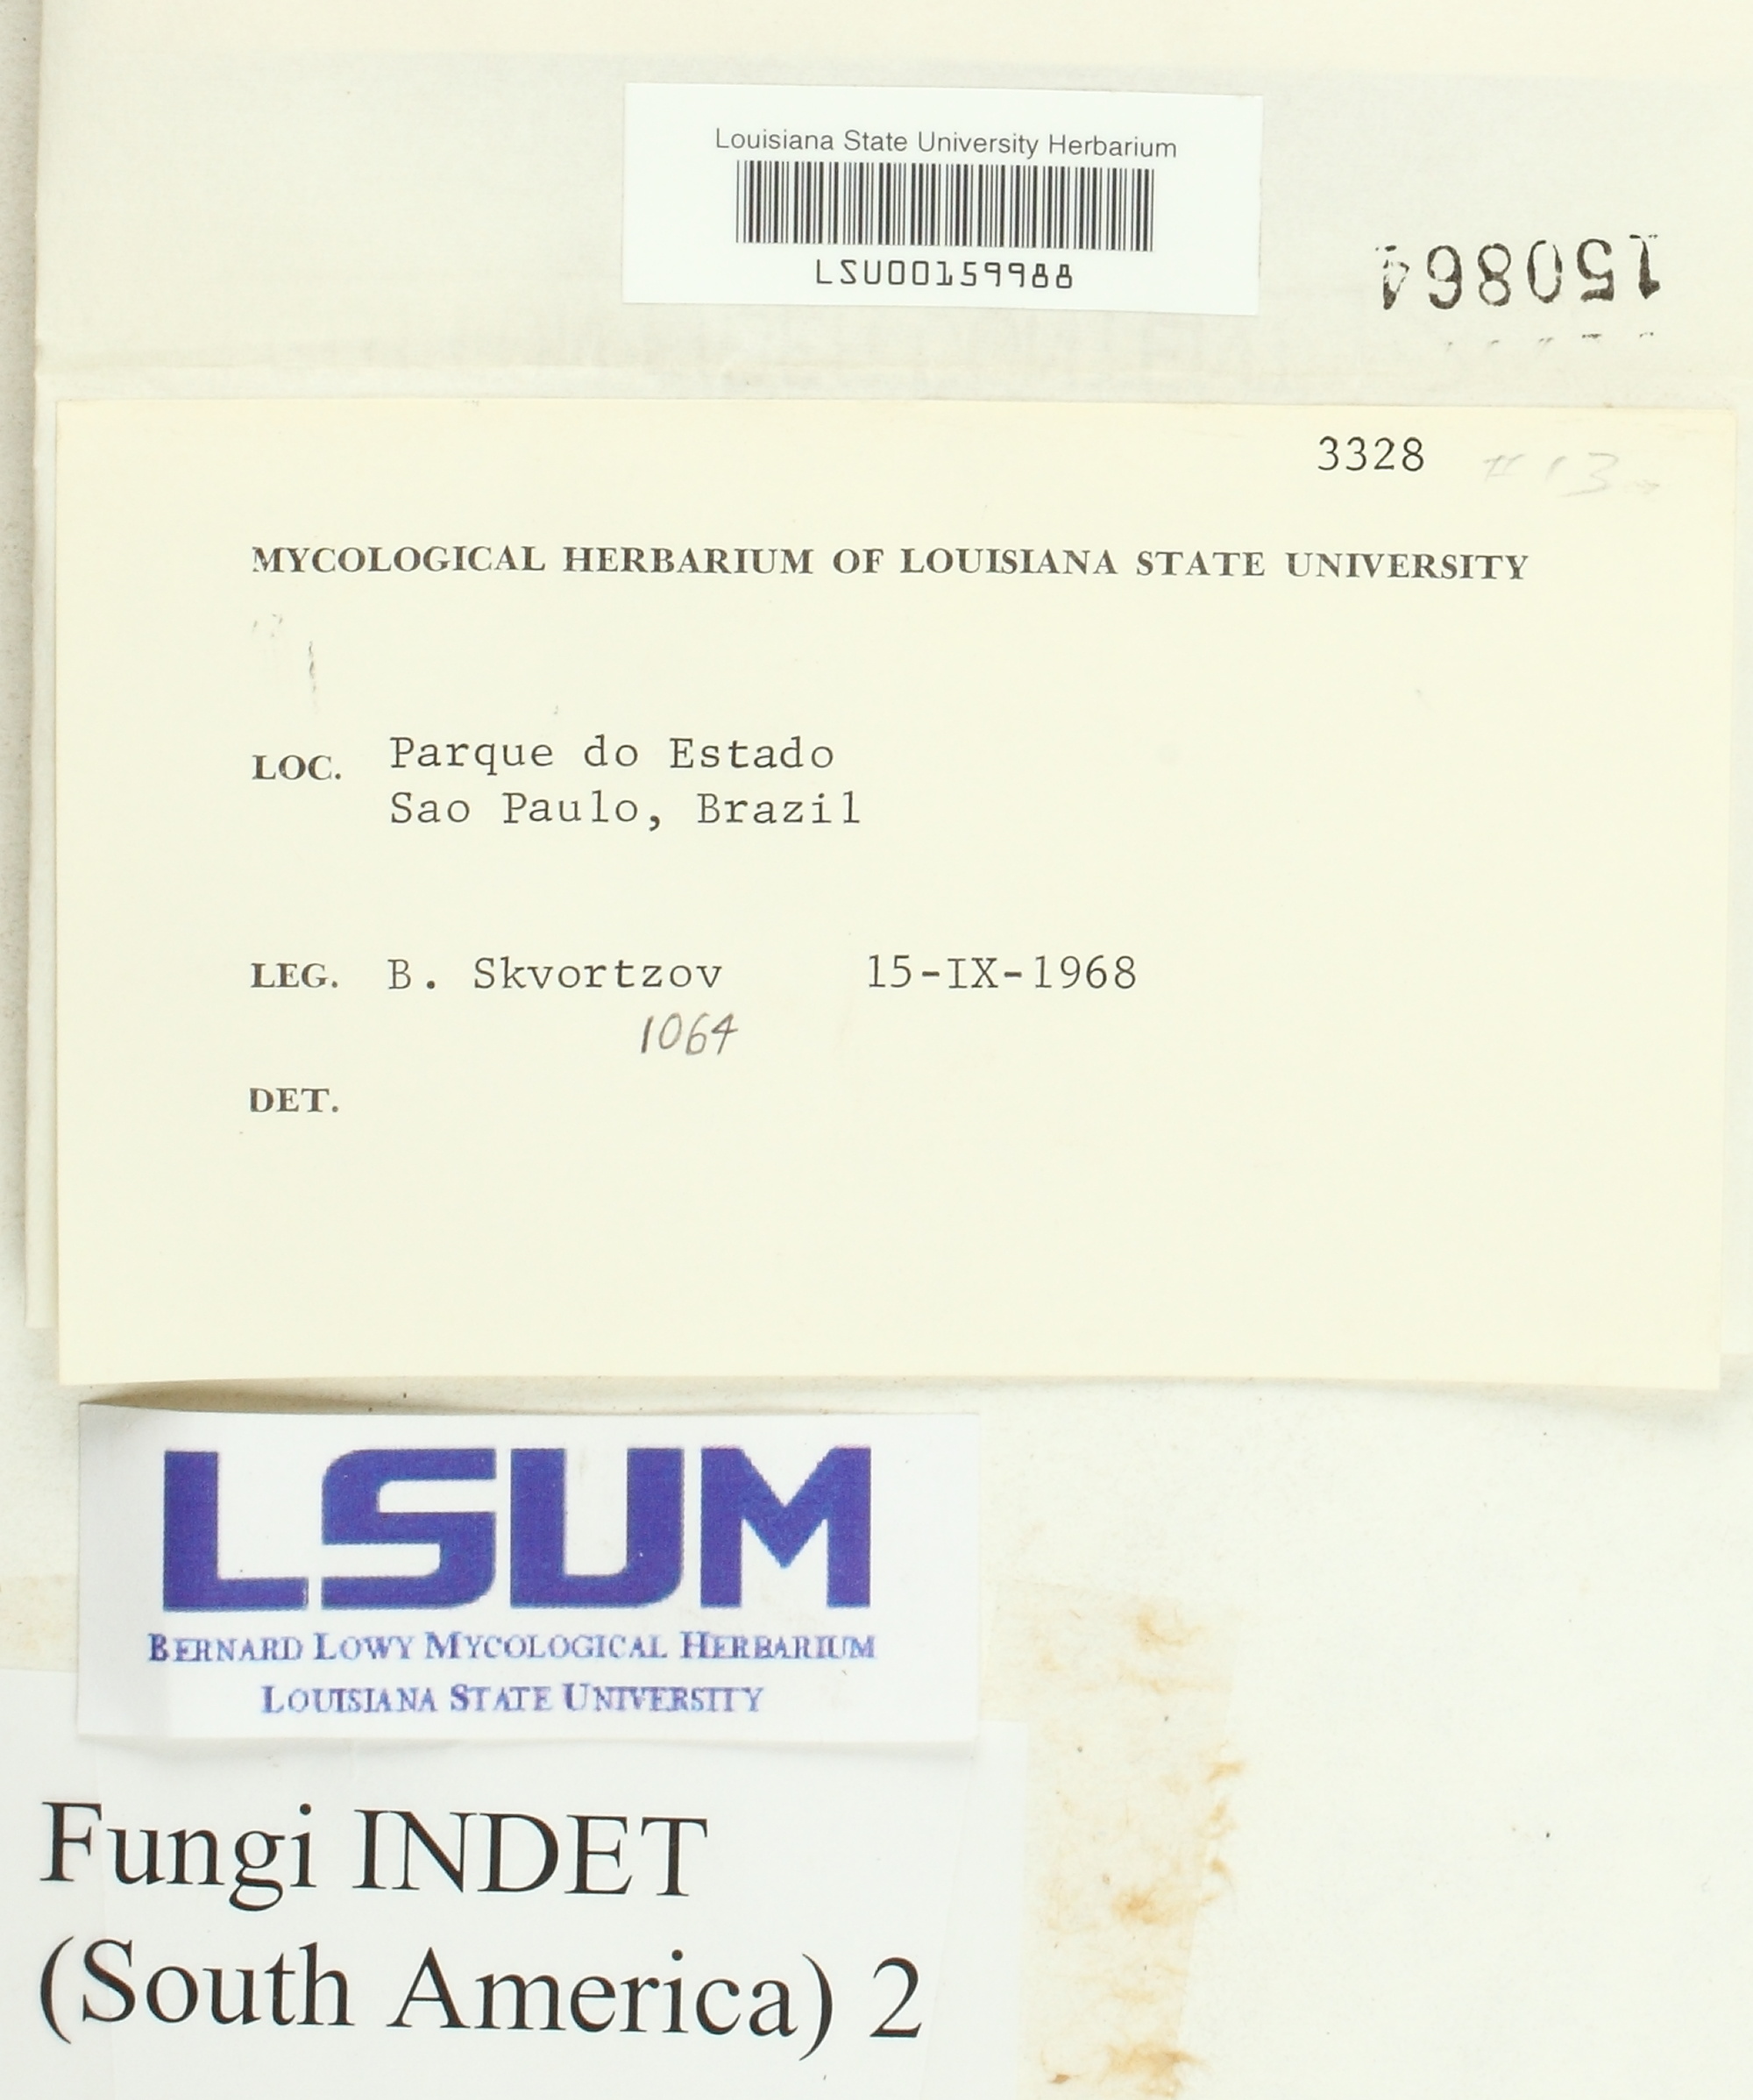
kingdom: Fungi
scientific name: Fungi
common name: Fungi
